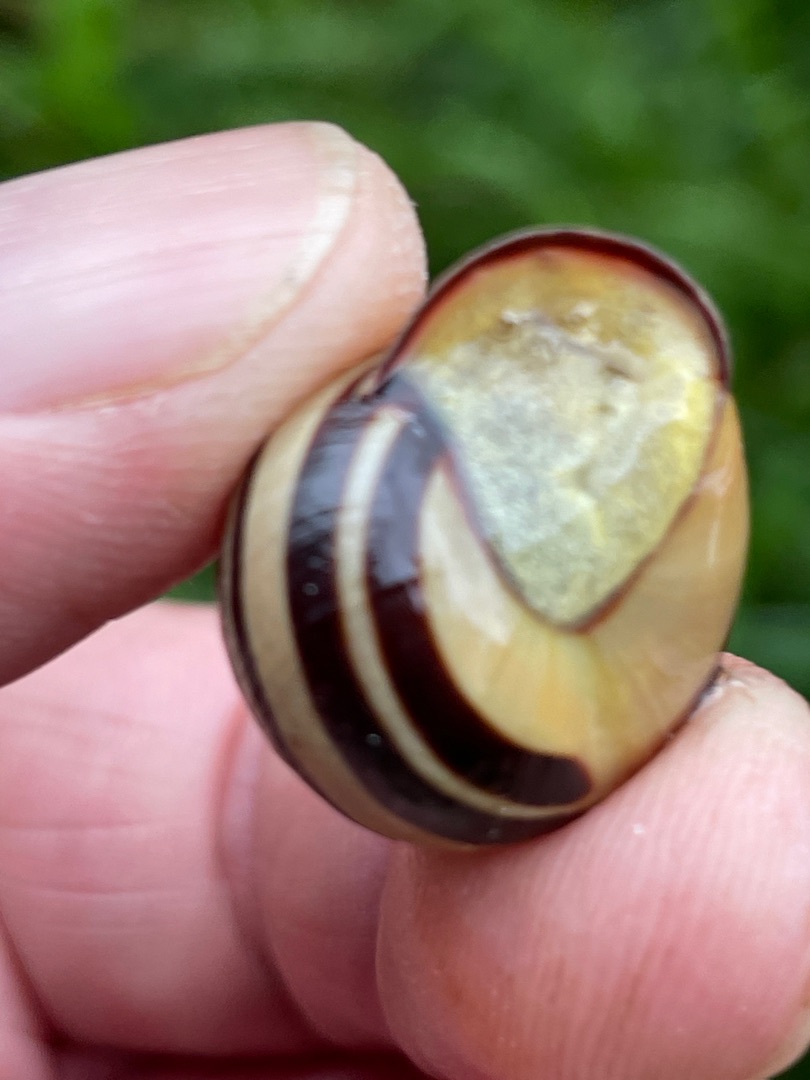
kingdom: Animalia
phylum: Mollusca
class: Gastropoda
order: Stylommatophora
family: Helicidae
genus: Cepaea
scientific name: Cepaea nemoralis
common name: Lundsnegl
